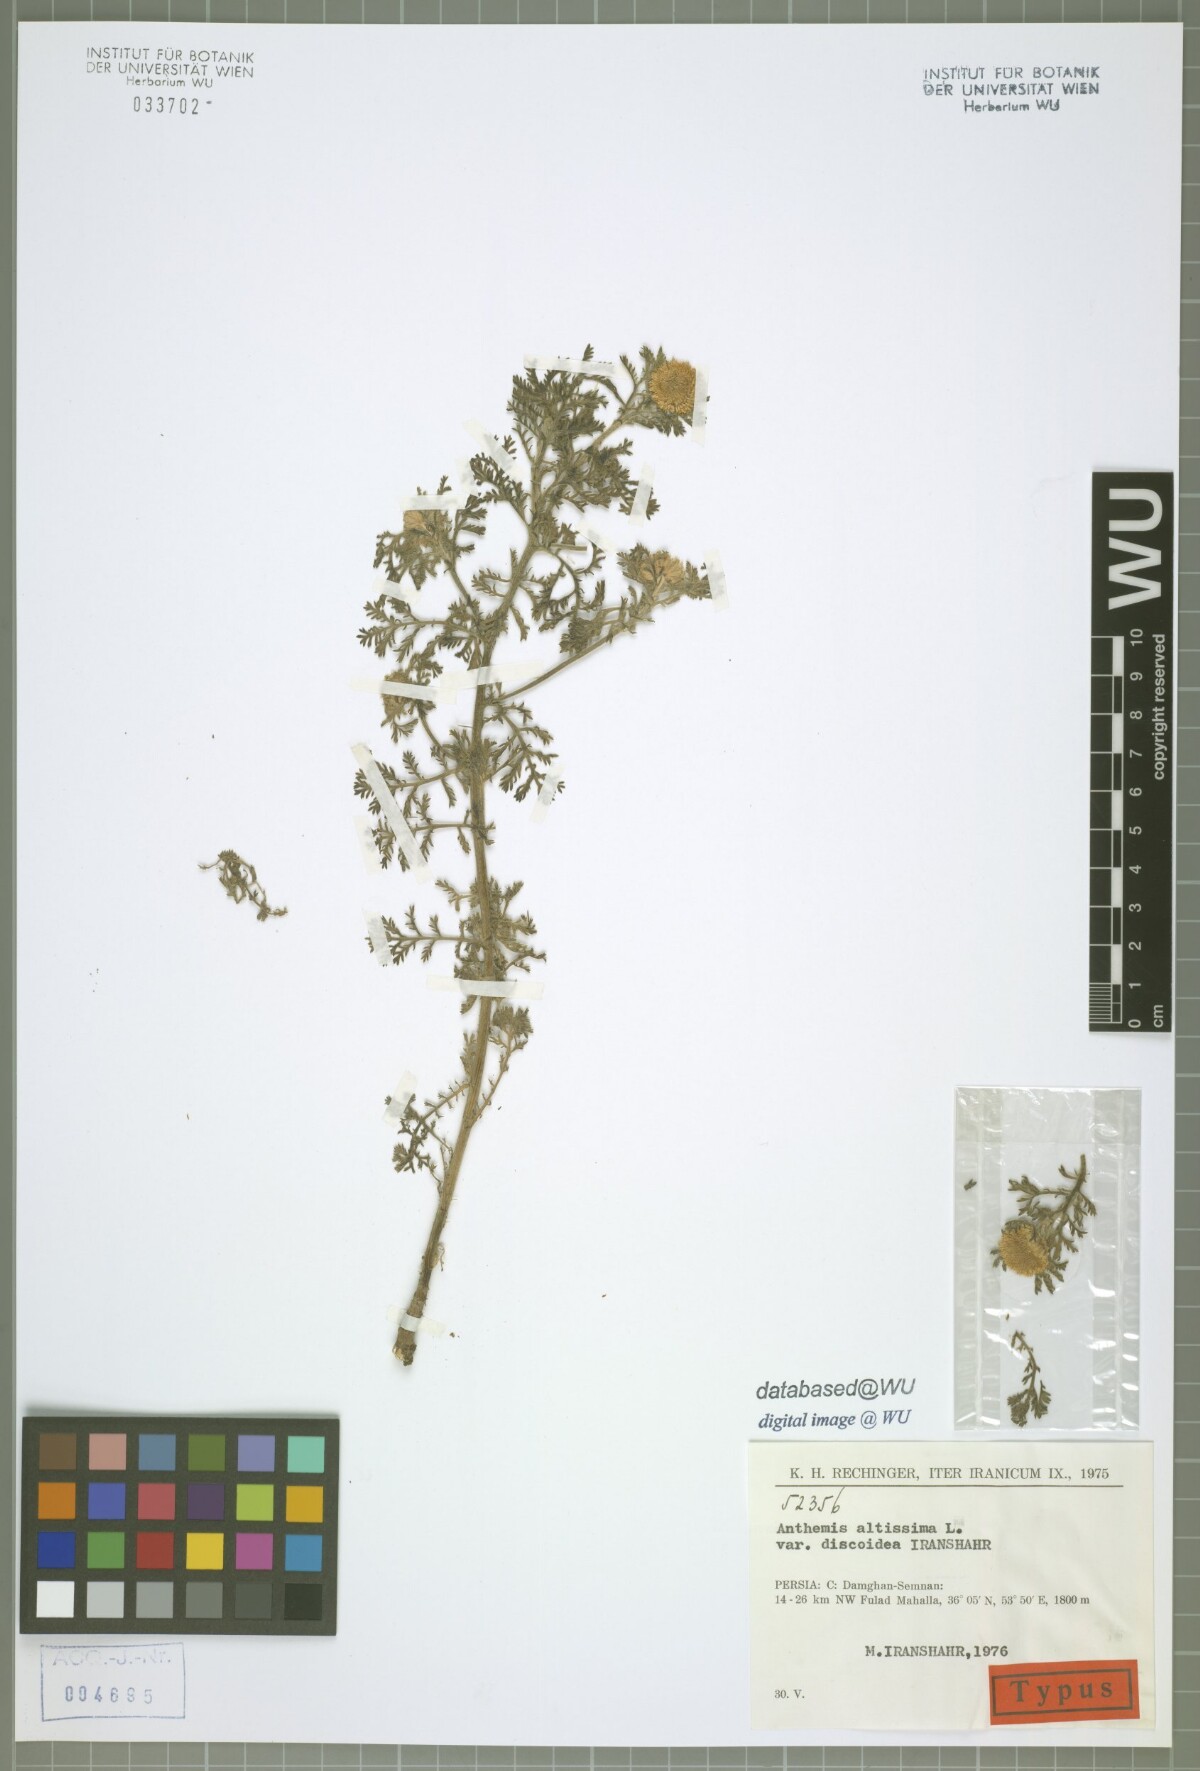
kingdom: Plantae
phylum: Tracheophyta
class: Magnoliopsida
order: Asterales
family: Asteraceae
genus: Cota
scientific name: Cota altissima
